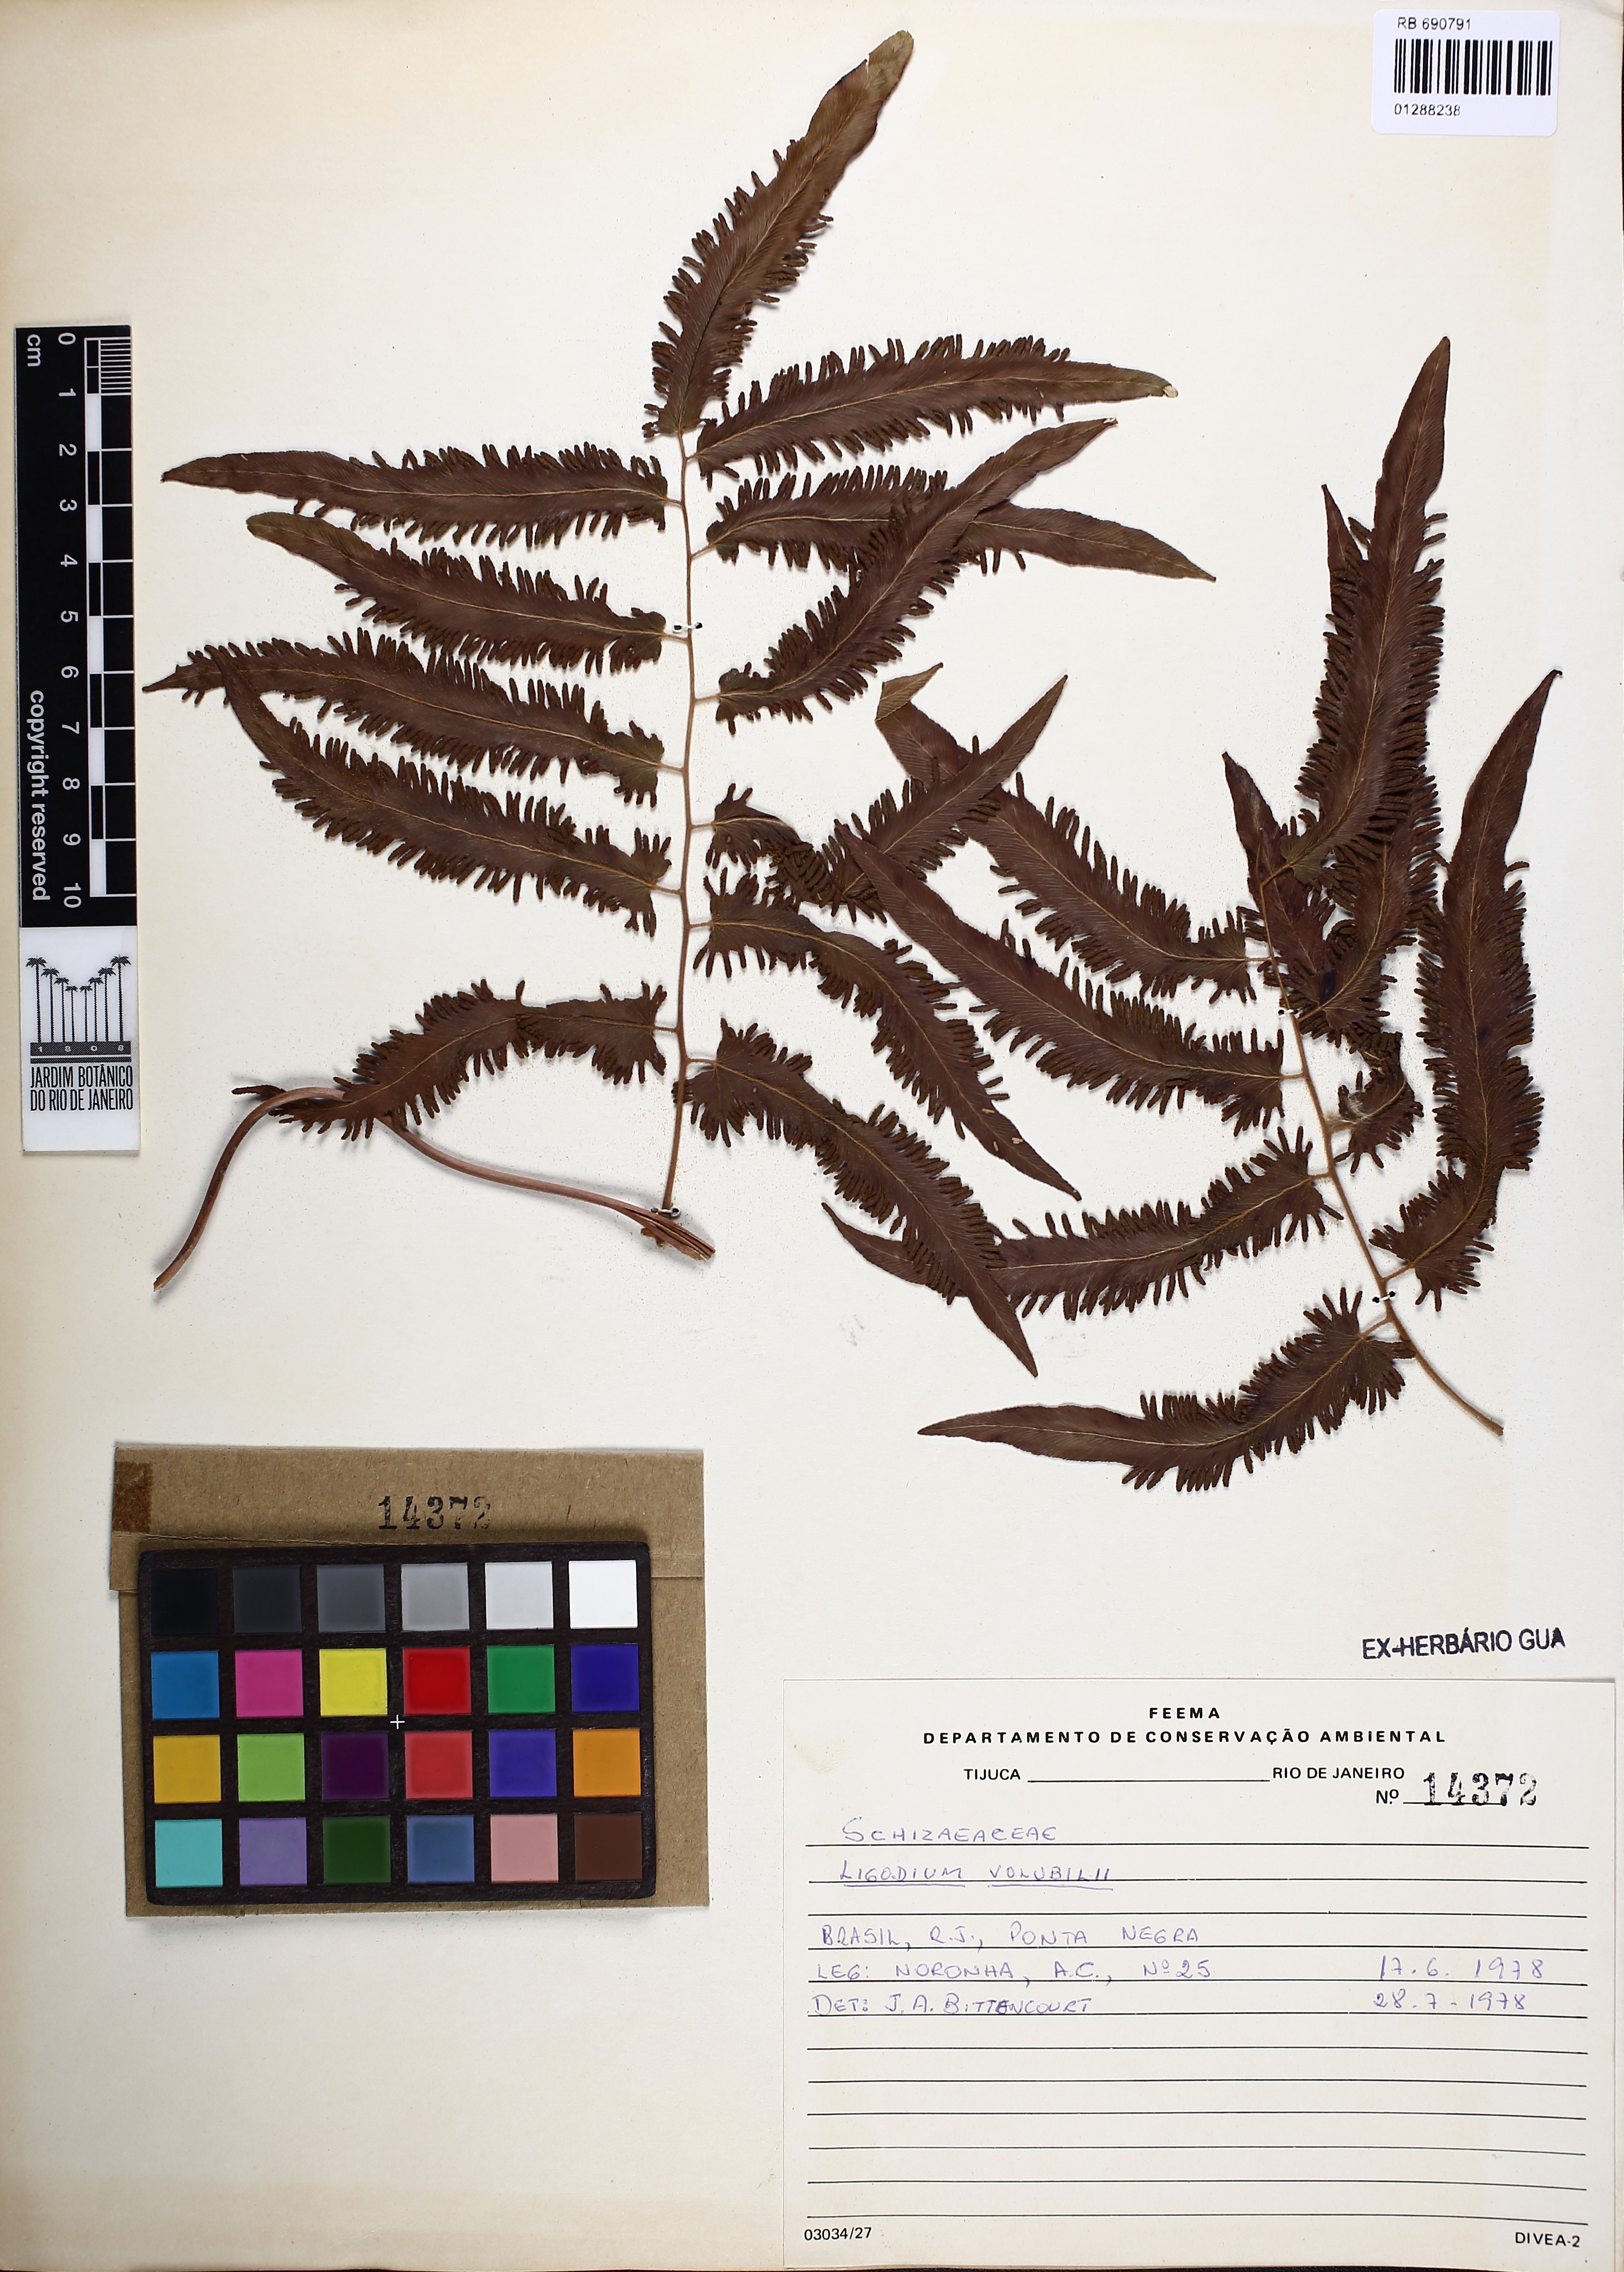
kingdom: Plantae
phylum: Tracheophyta
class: Polypodiopsida
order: Schizaeales
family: Lygodiaceae
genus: Lygodium
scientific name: Lygodium volubile
